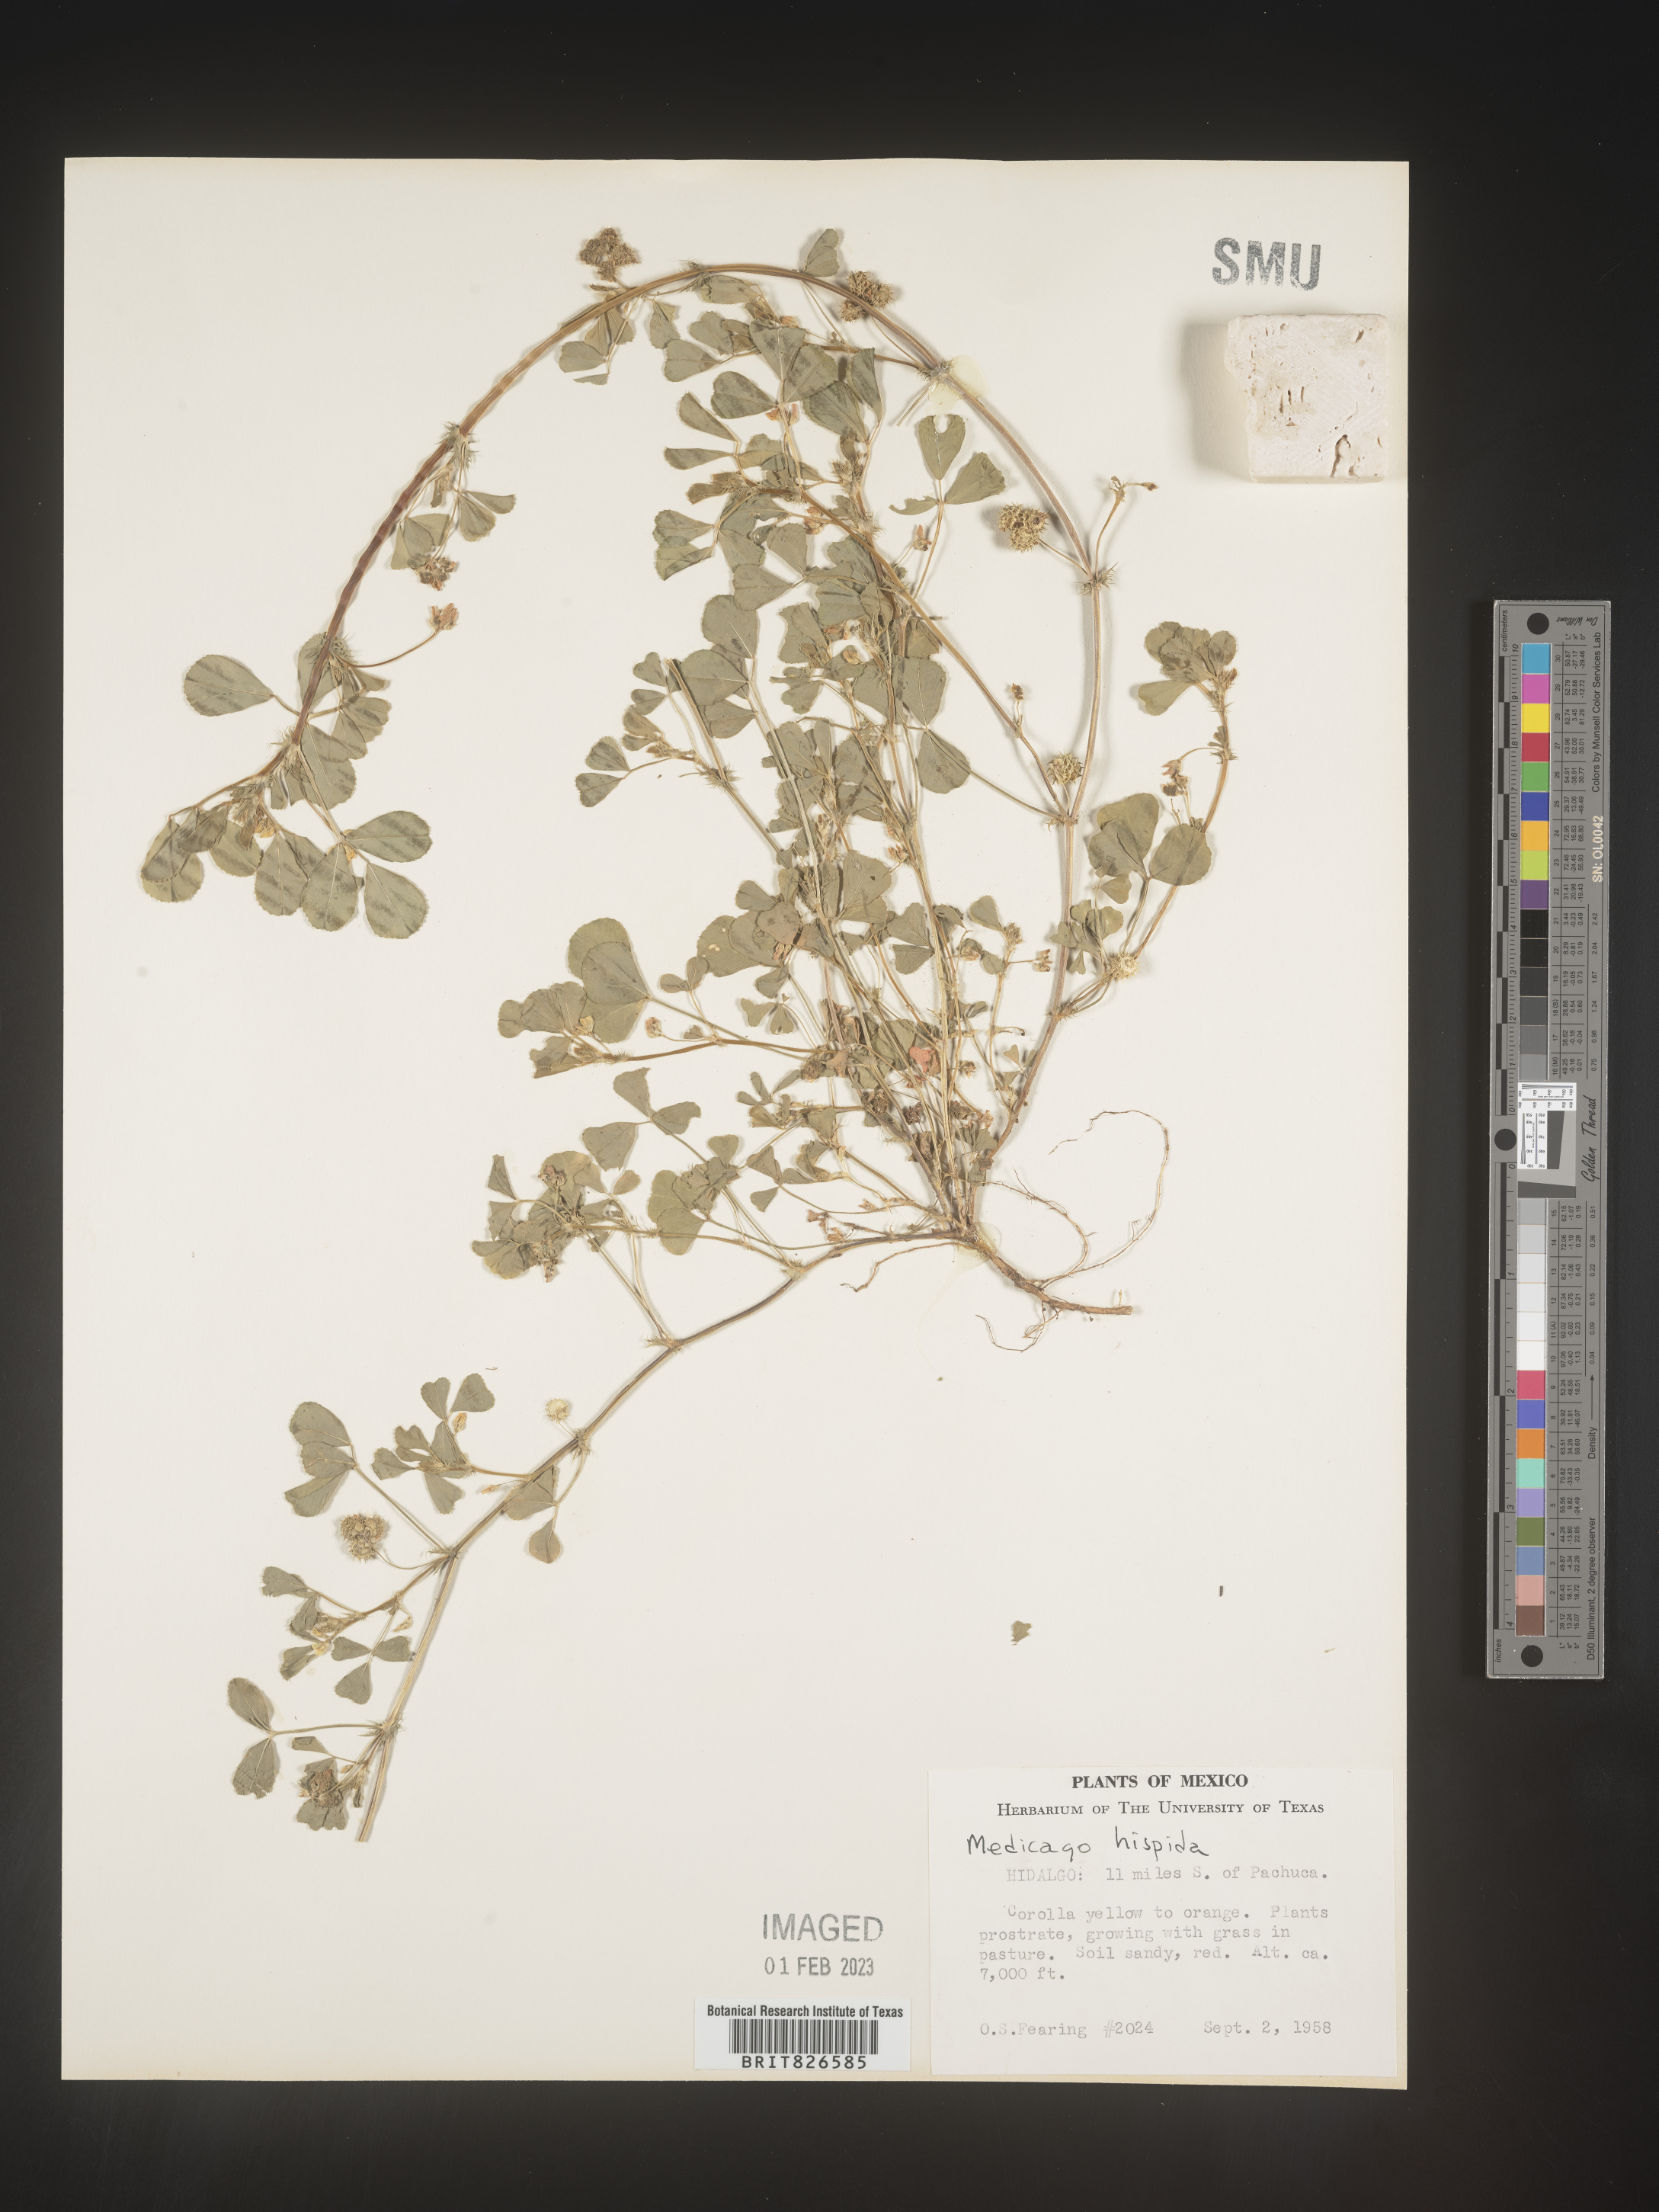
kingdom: Plantae
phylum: Tracheophyta
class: Magnoliopsida
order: Fabales
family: Fabaceae
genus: Medicago
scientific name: Medicago
